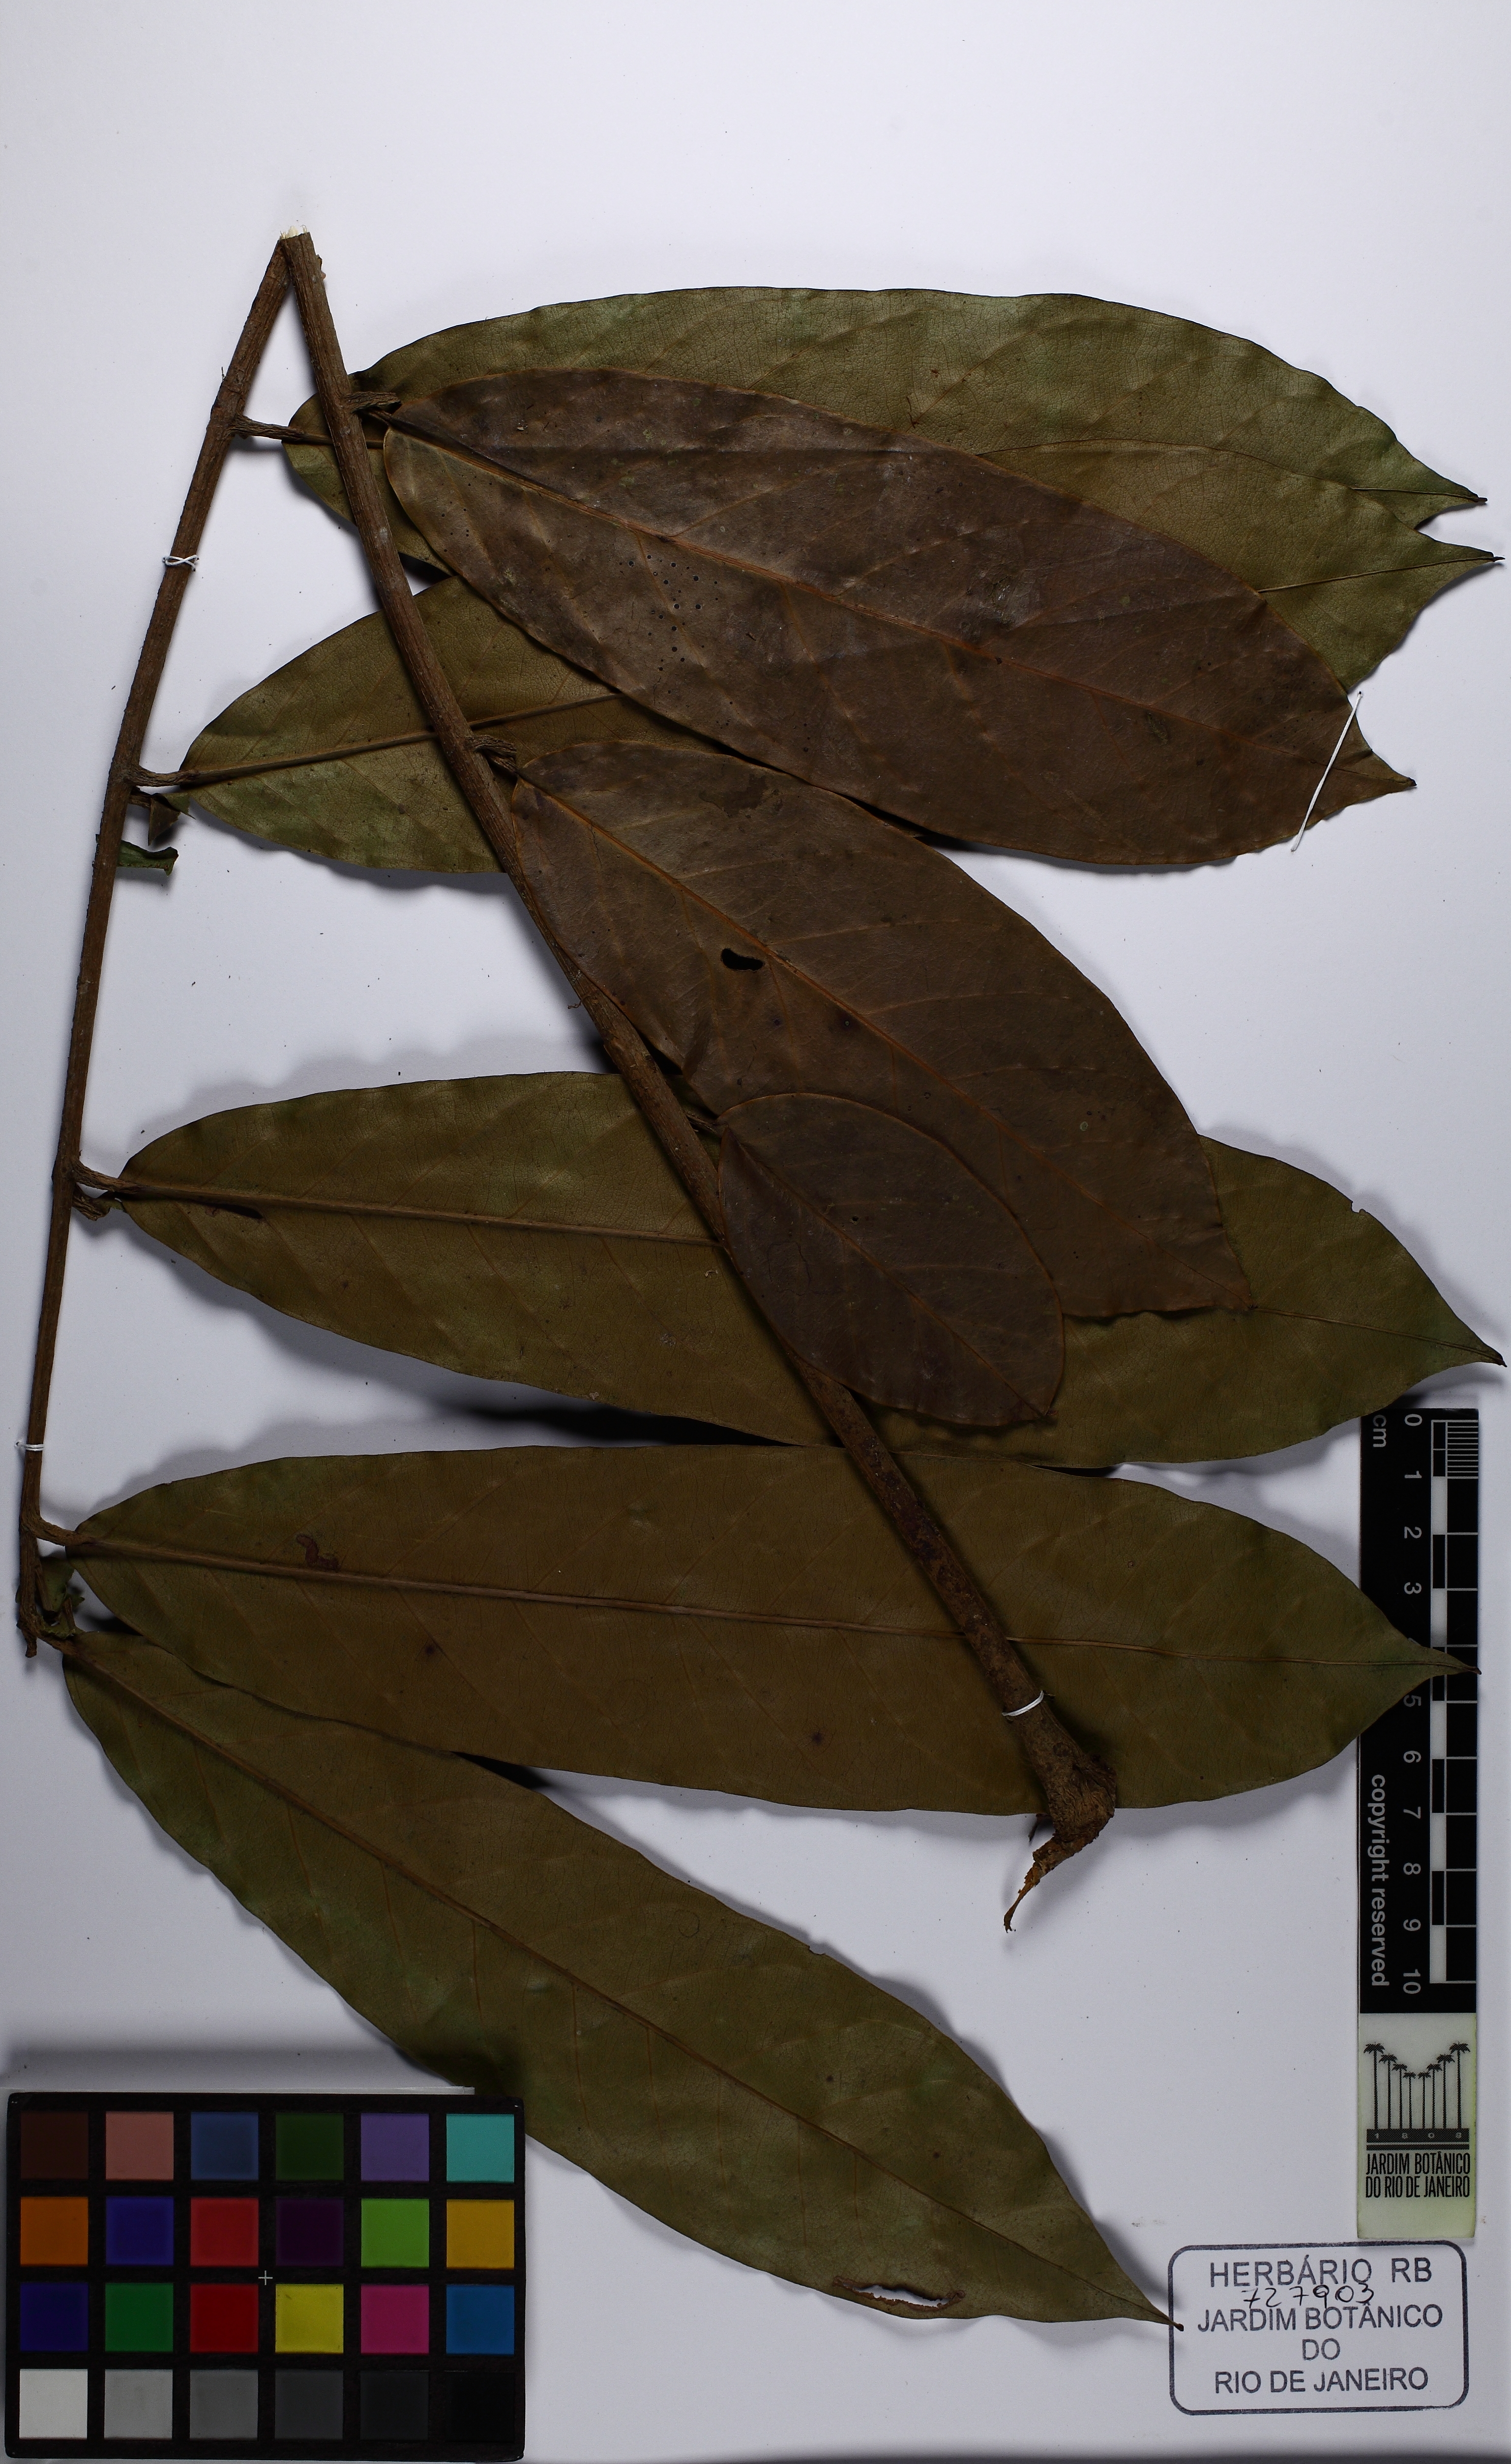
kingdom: Plantae
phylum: Tracheophyta
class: Magnoliopsida
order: Sapindales
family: Meliaceae
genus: Carapa
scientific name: Carapa
